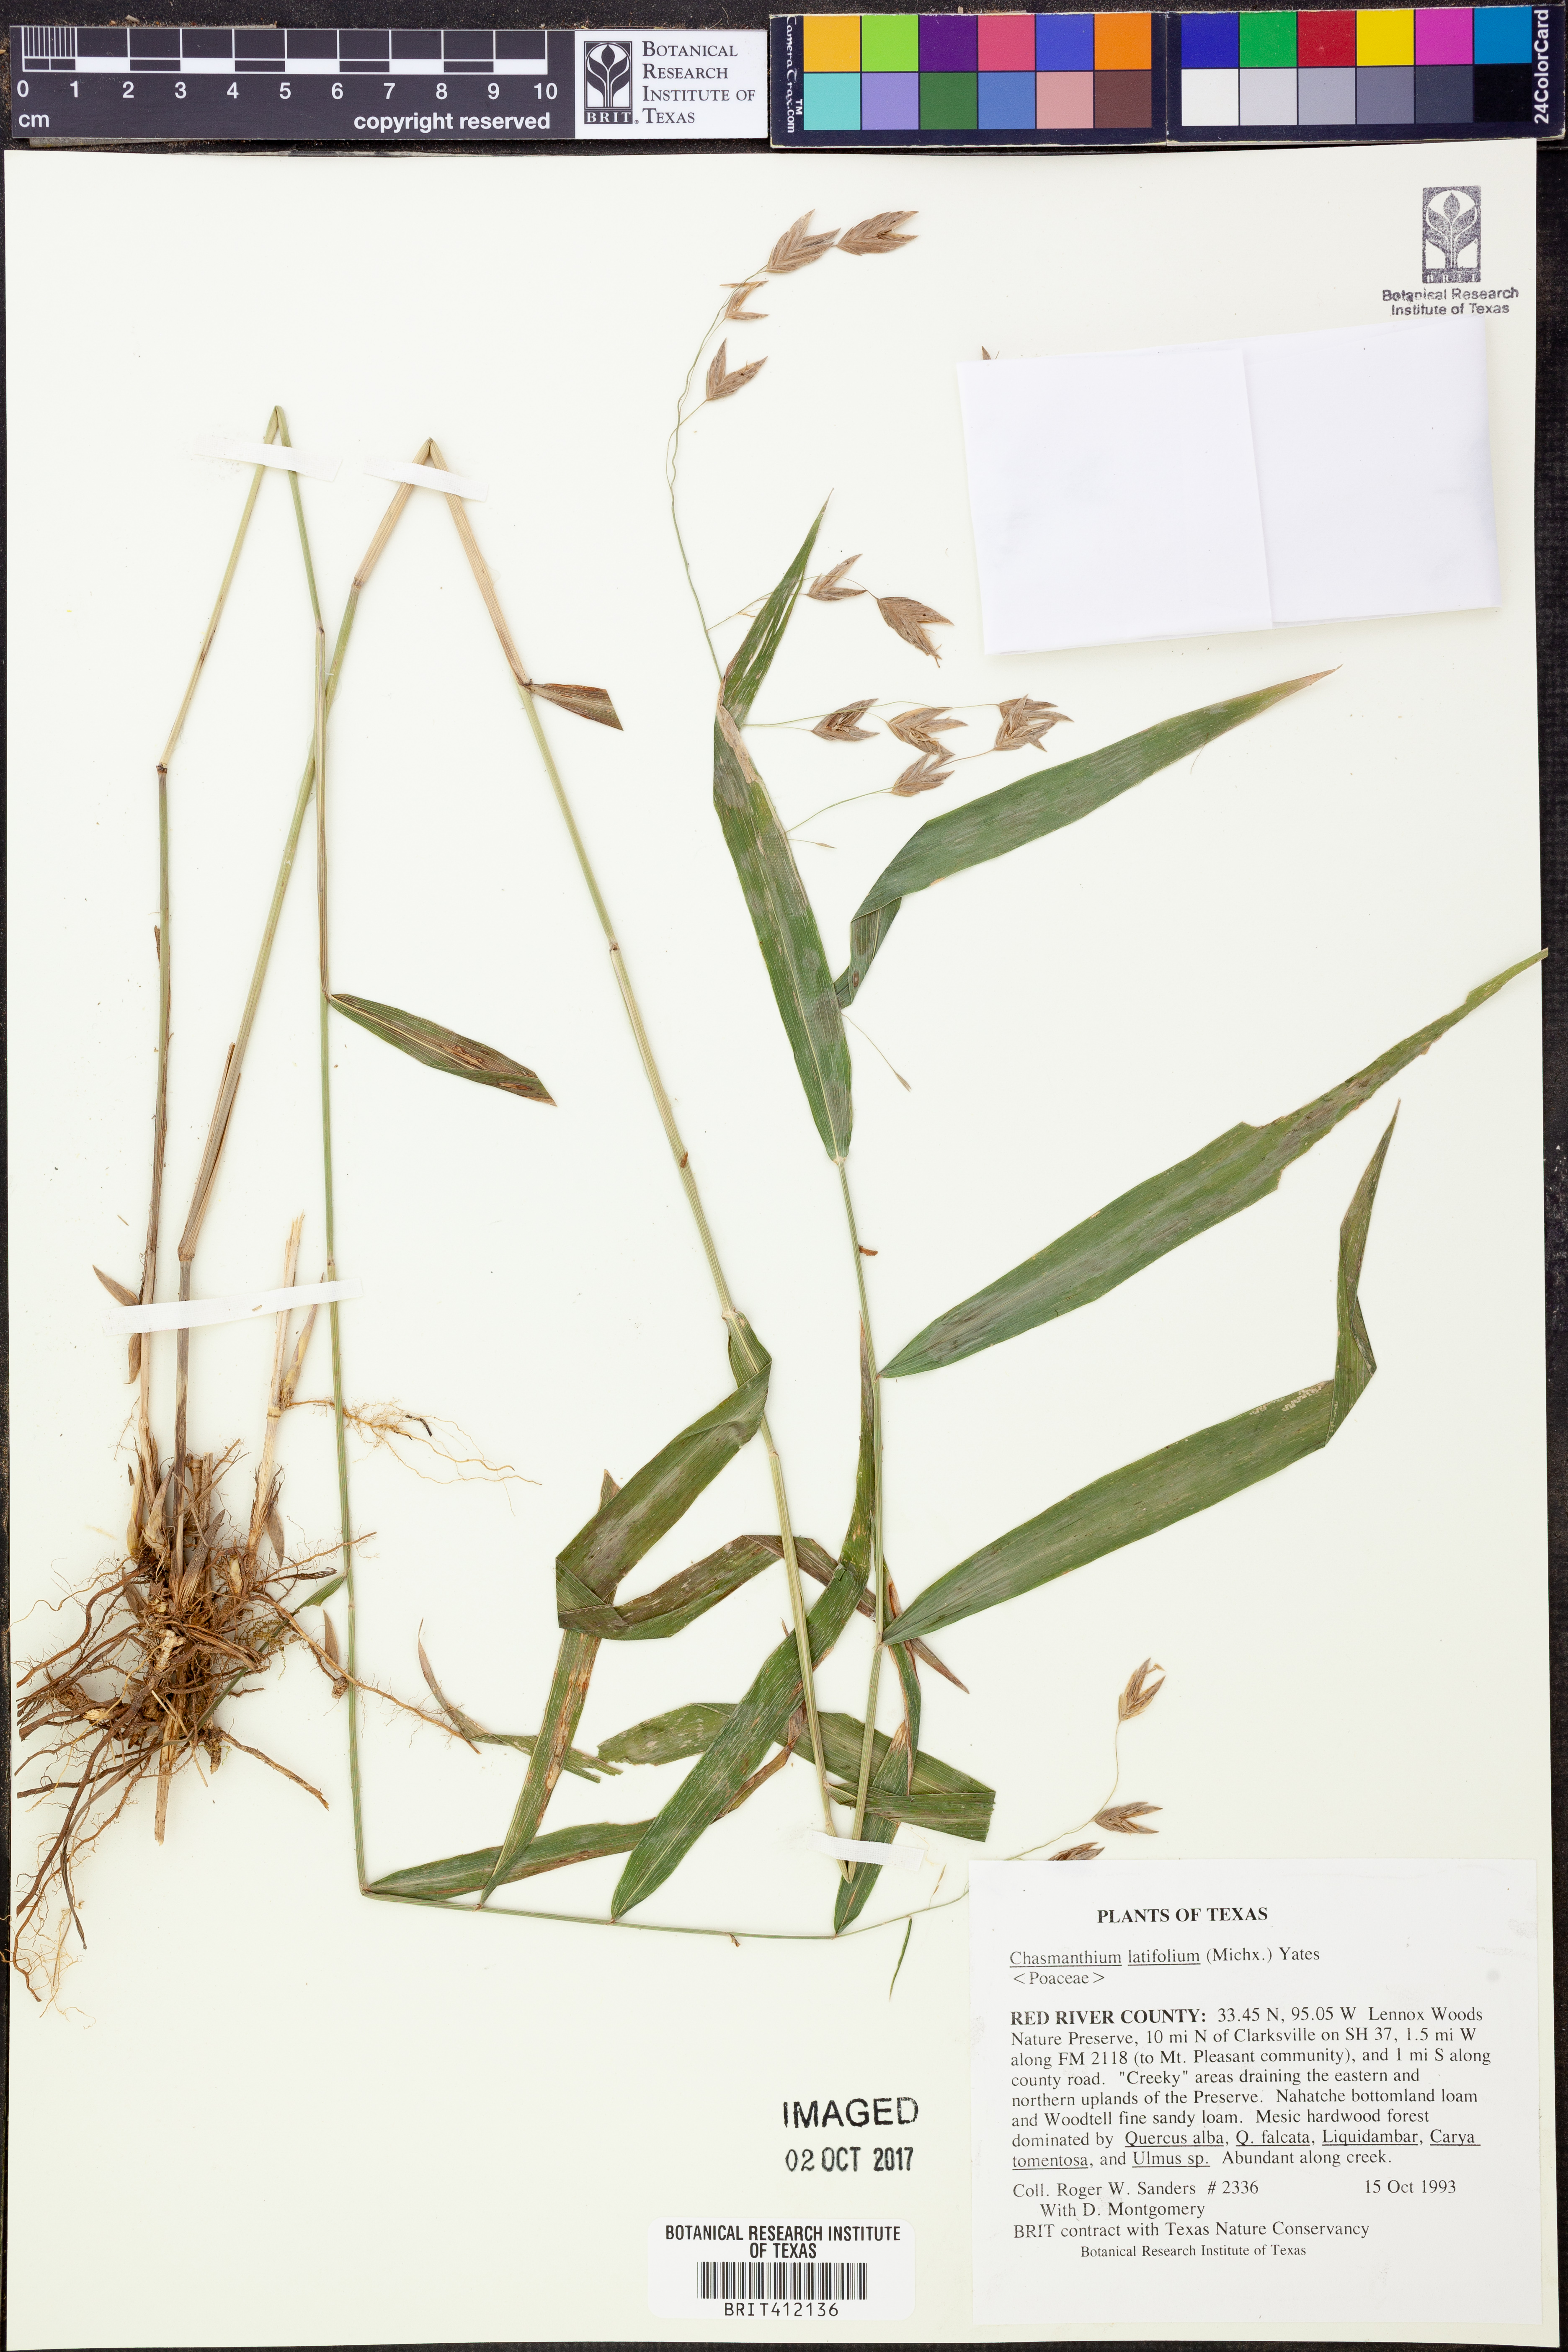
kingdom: Plantae
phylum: Tracheophyta
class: Liliopsida
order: Poales
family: Poaceae
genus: Chasmanthium
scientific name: Chasmanthium latifolium
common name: Broad-leaved chasmanthium
